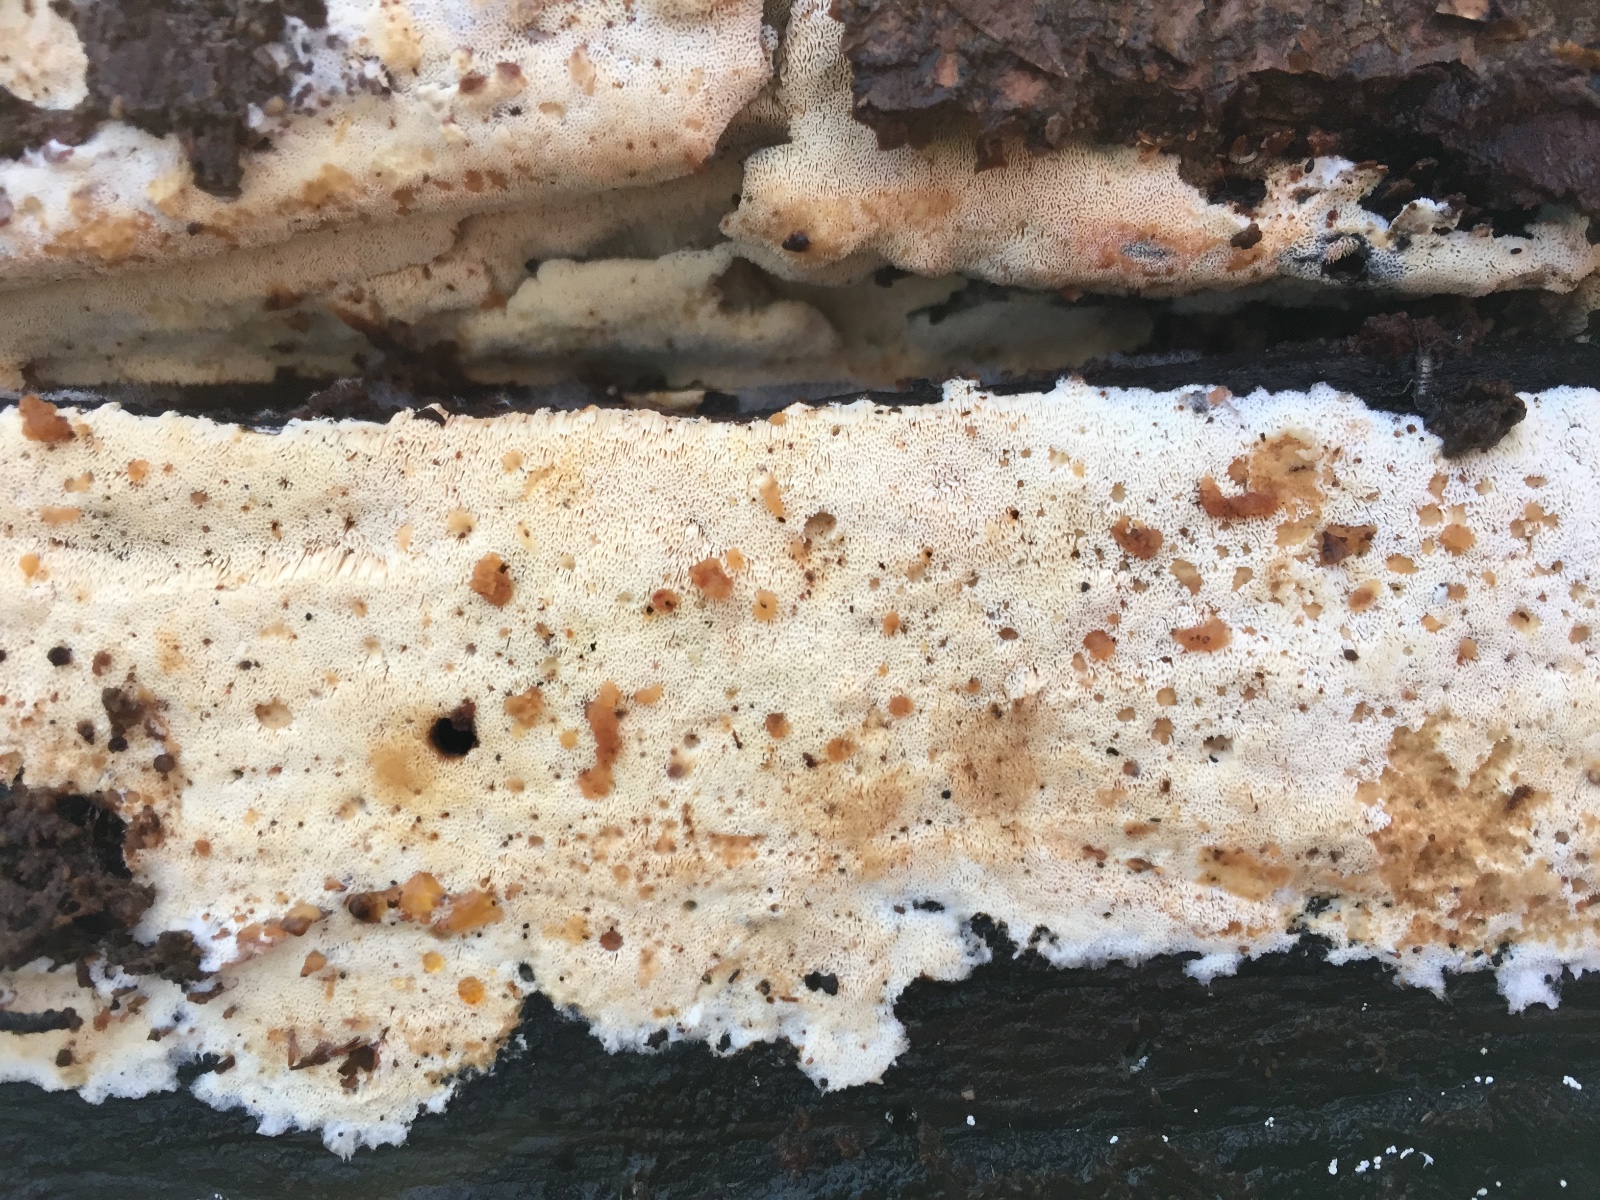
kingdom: Fungi
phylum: Basidiomycota
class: Agaricomycetes
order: Polyporales
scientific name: Polyporales
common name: poresvampordenen
